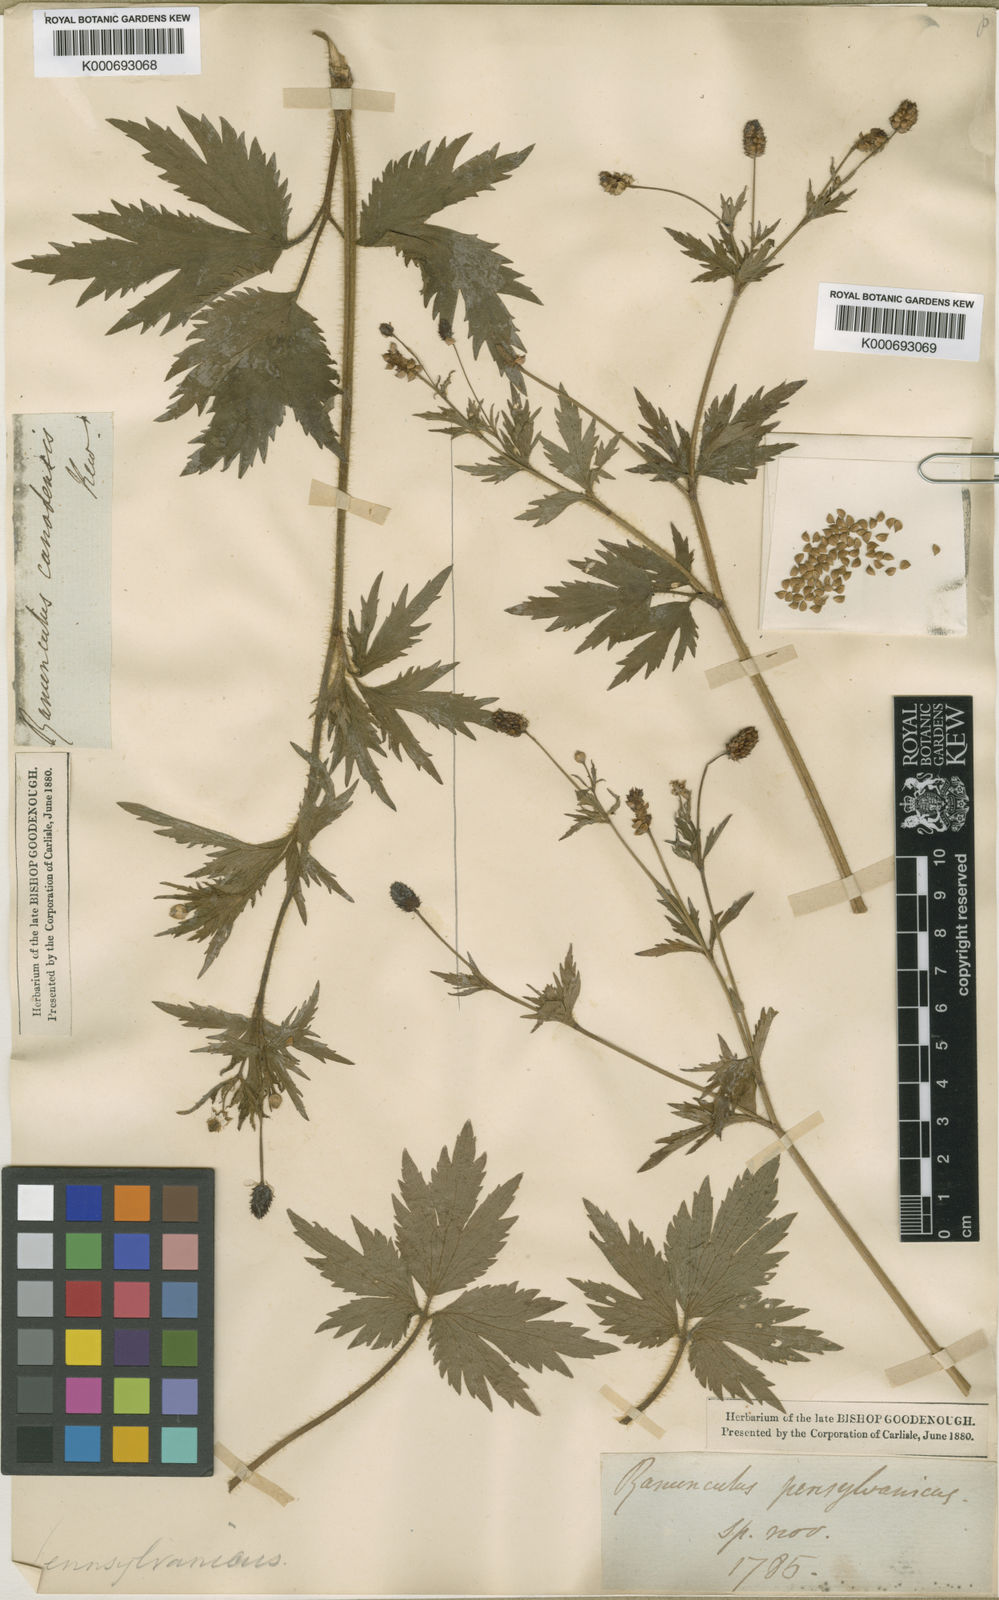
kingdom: Plantae
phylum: Tracheophyta
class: Magnoliopsida
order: Ranunculales
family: Ranunculaceae
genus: Ranunculus
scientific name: Ranunculus pensylvanicus
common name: Bristly buttercup
